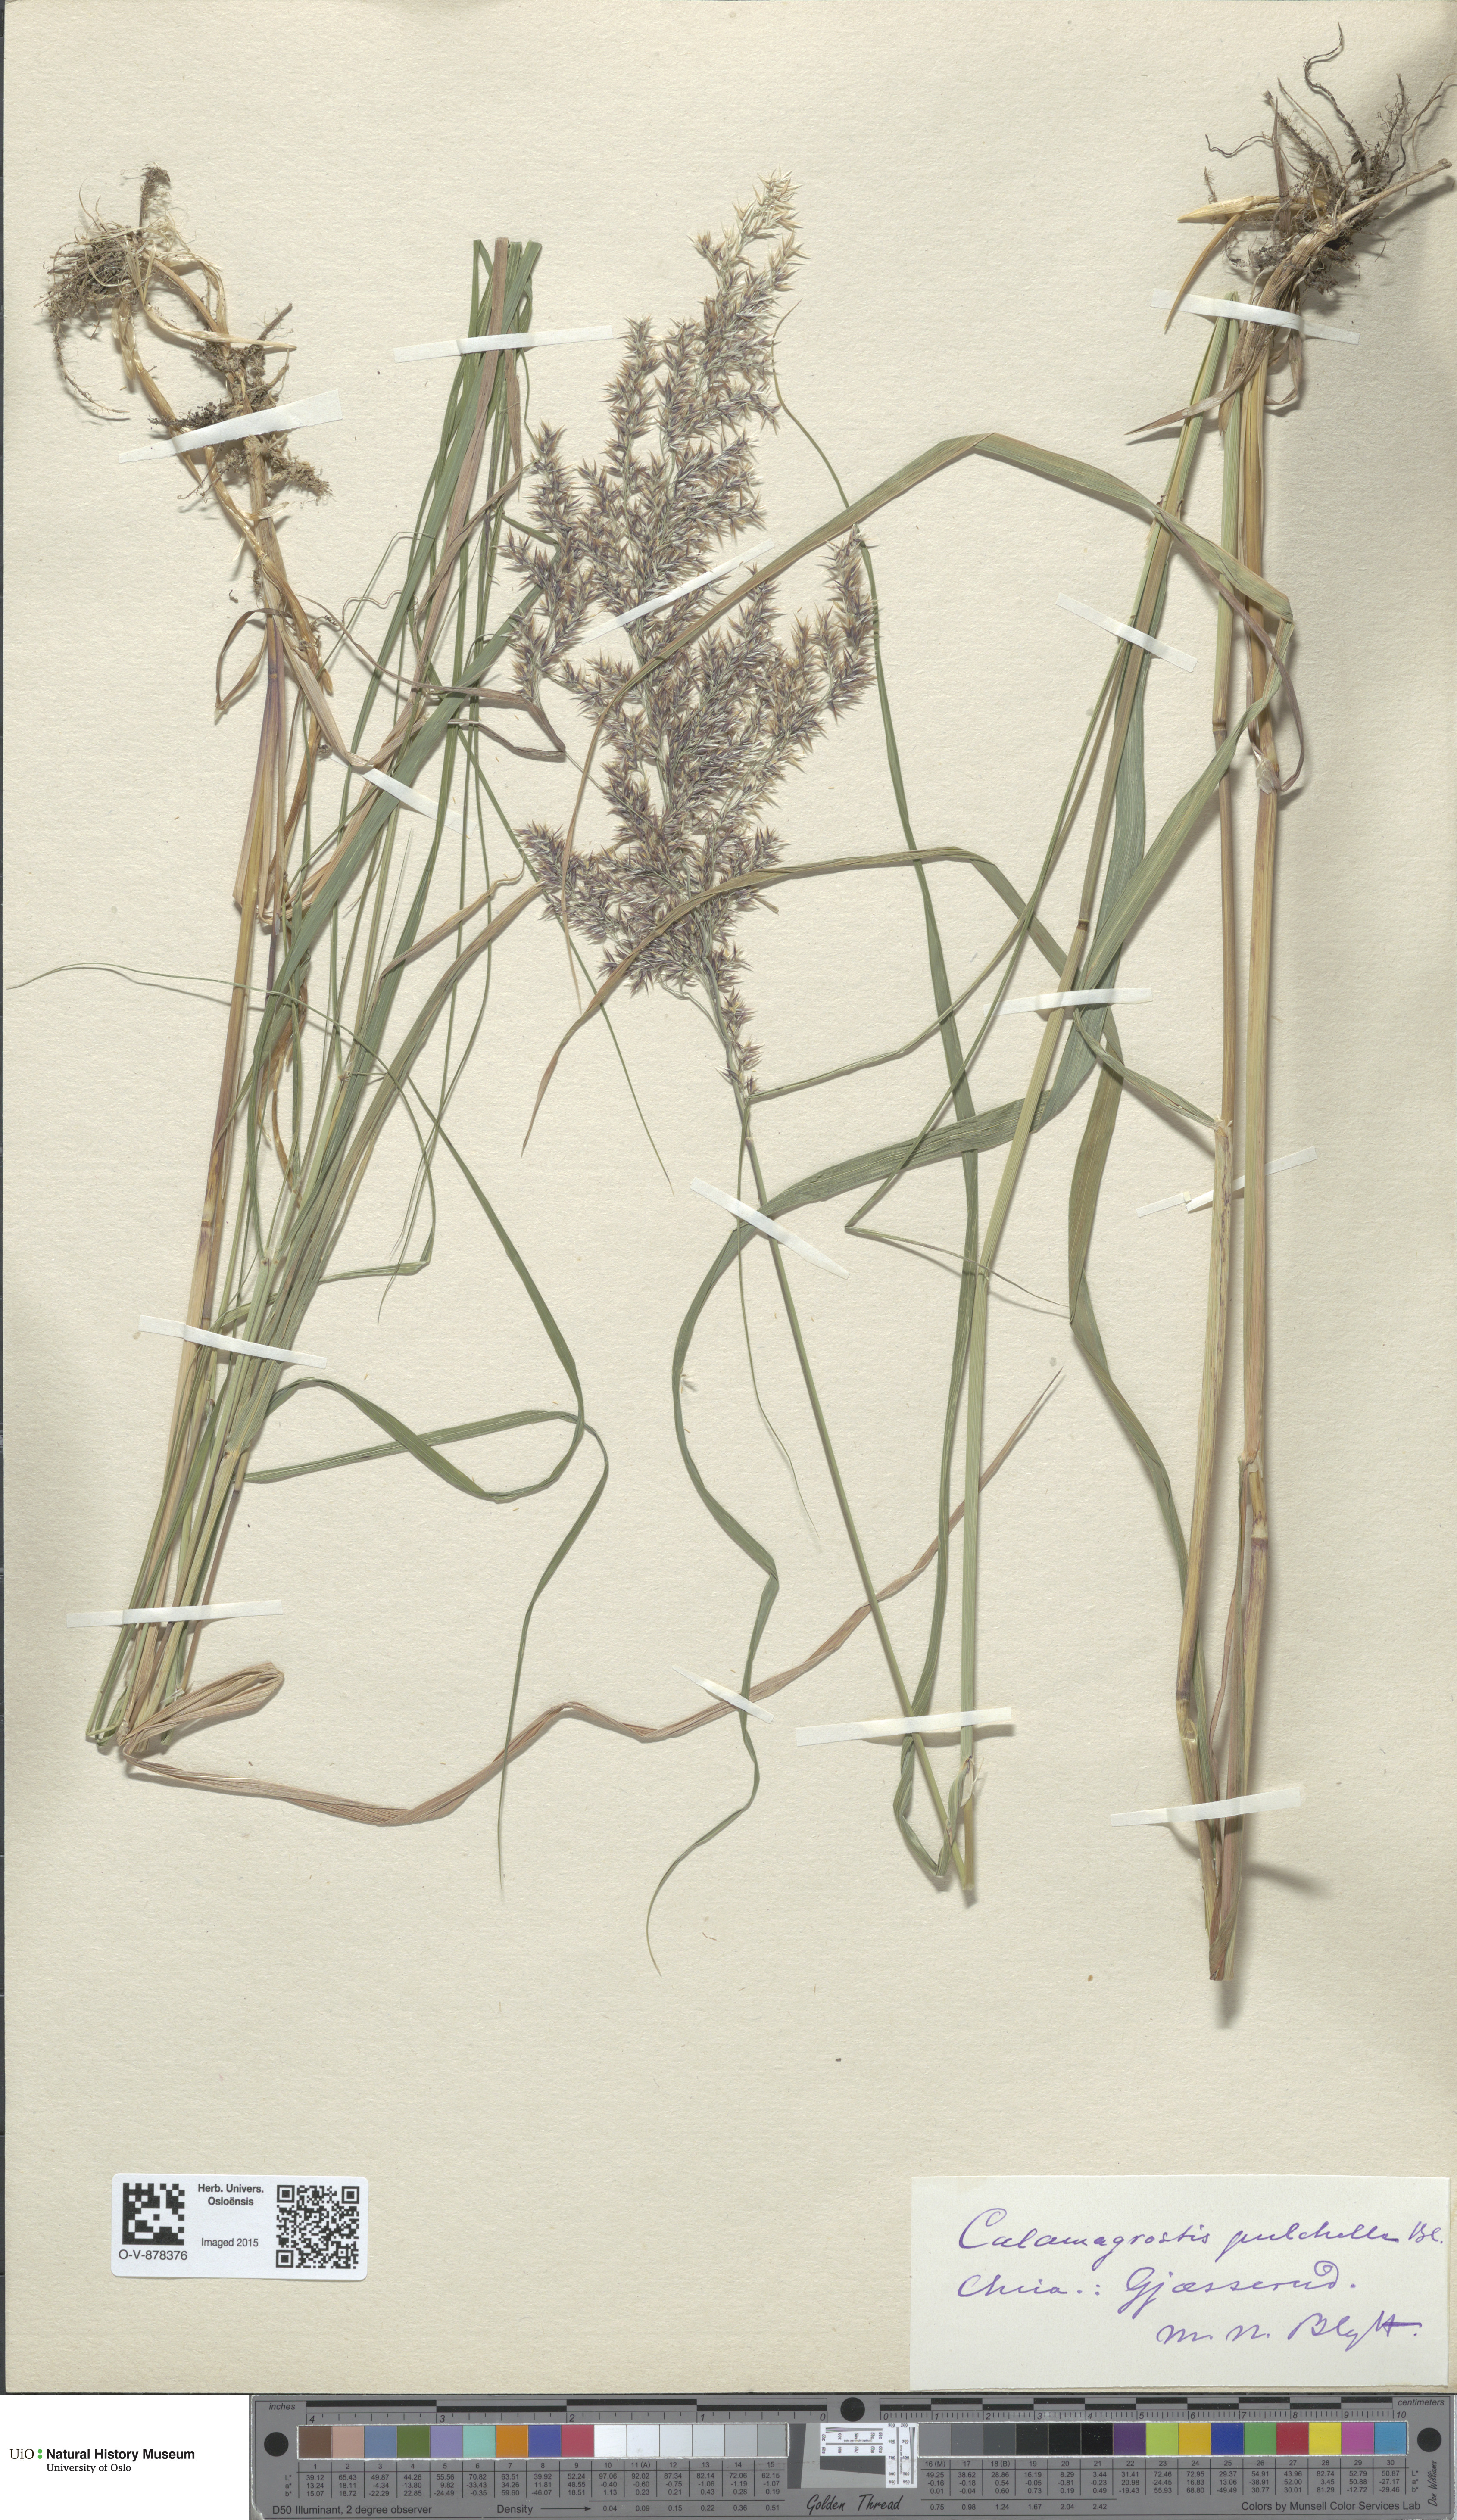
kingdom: Plantae
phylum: Tracheophyta
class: Liliopsida
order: Poales
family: Poaceae
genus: Calamagrostis
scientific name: Calamagrostis purpurea
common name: Scandinavian small-reed
